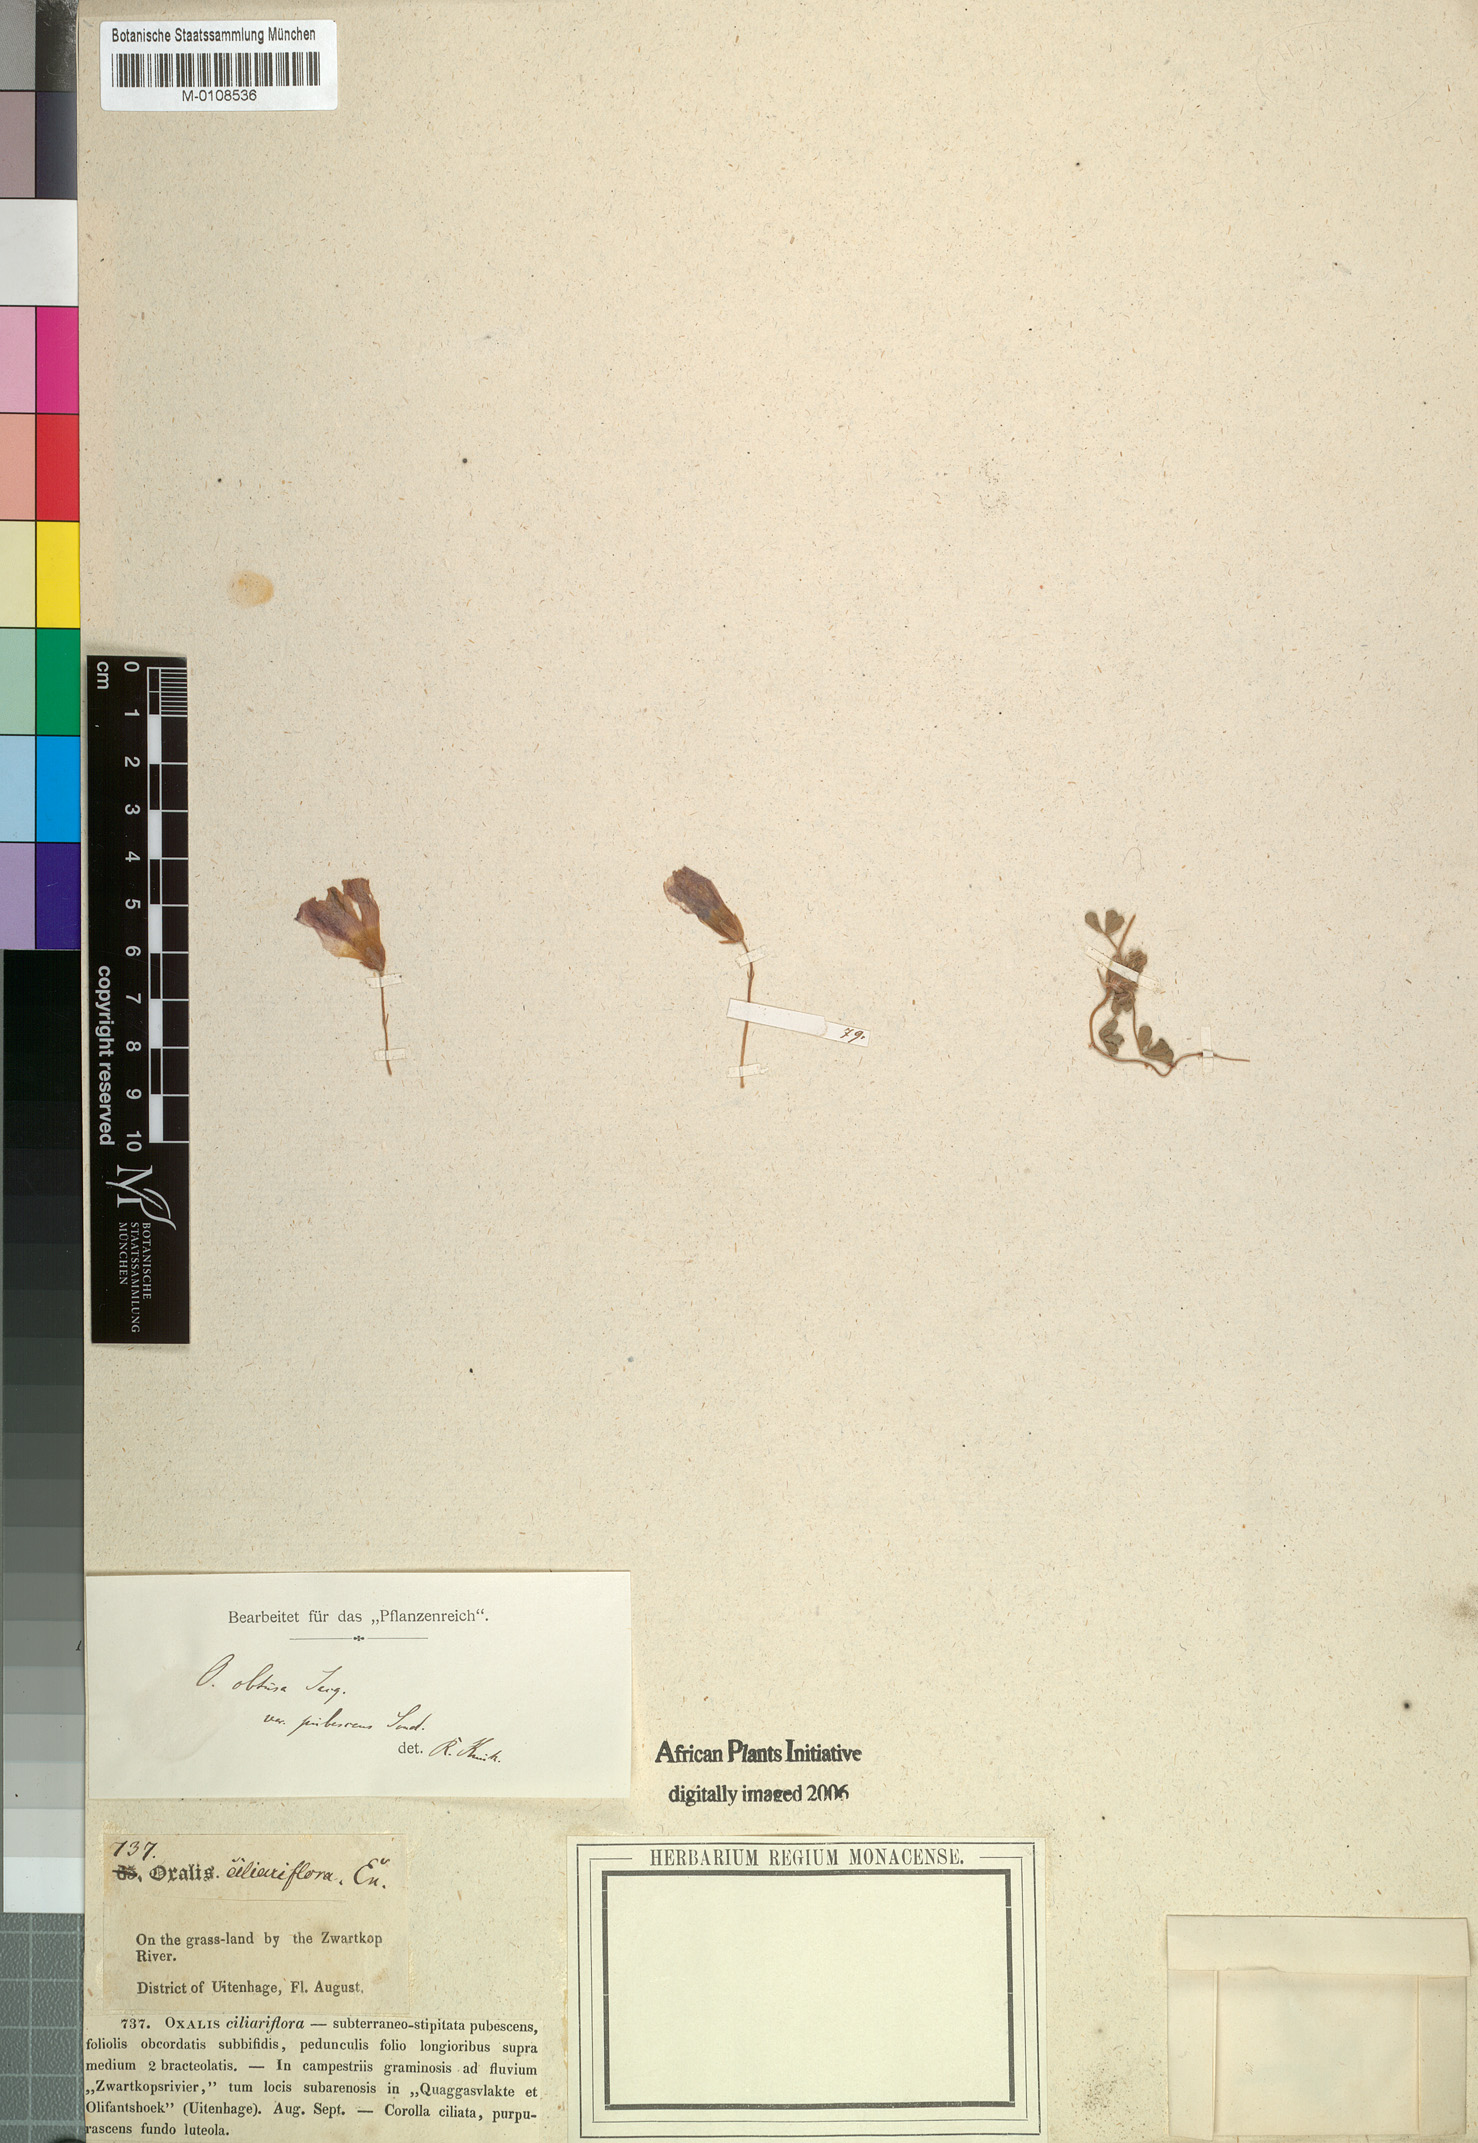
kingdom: Plantae
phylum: Tracheophyta
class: Magnoliopsida
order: Oxalidales
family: Oxalidaceae
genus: Oxalis
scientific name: Oxalis obtusa
